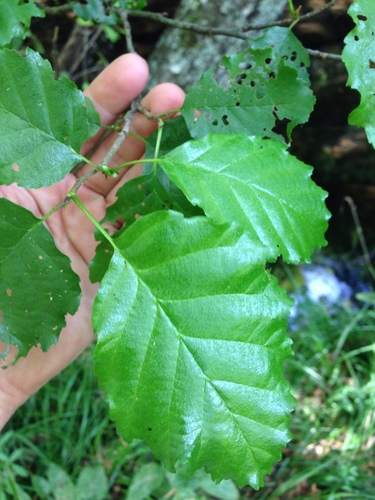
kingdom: Plantae
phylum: Tracheophyta
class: Magnoliopsida
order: Fagales
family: Betulaceae
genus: Alnus
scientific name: Alnus lusitanica
